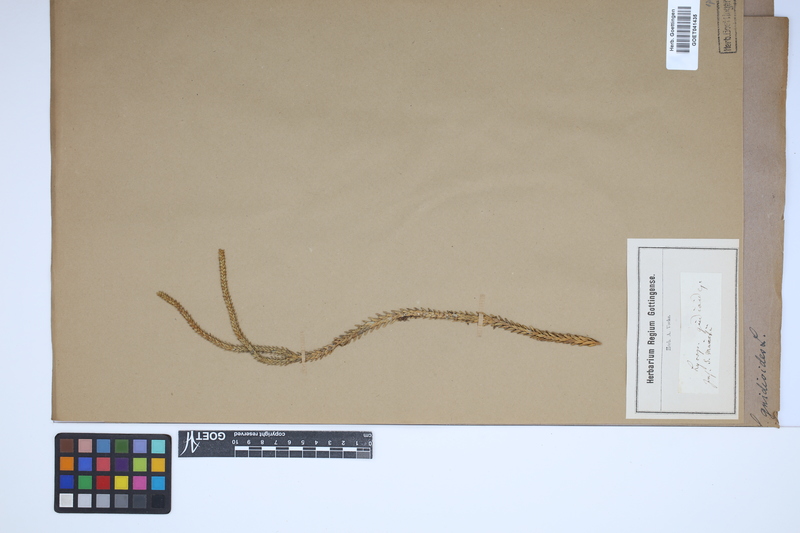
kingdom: Plantae
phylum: Tracheophyta
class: Lycopodiopsida
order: Lycopodiales
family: Lycopodiaceae
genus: Phlegmariurus
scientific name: Phlegmariurus gnidioides
